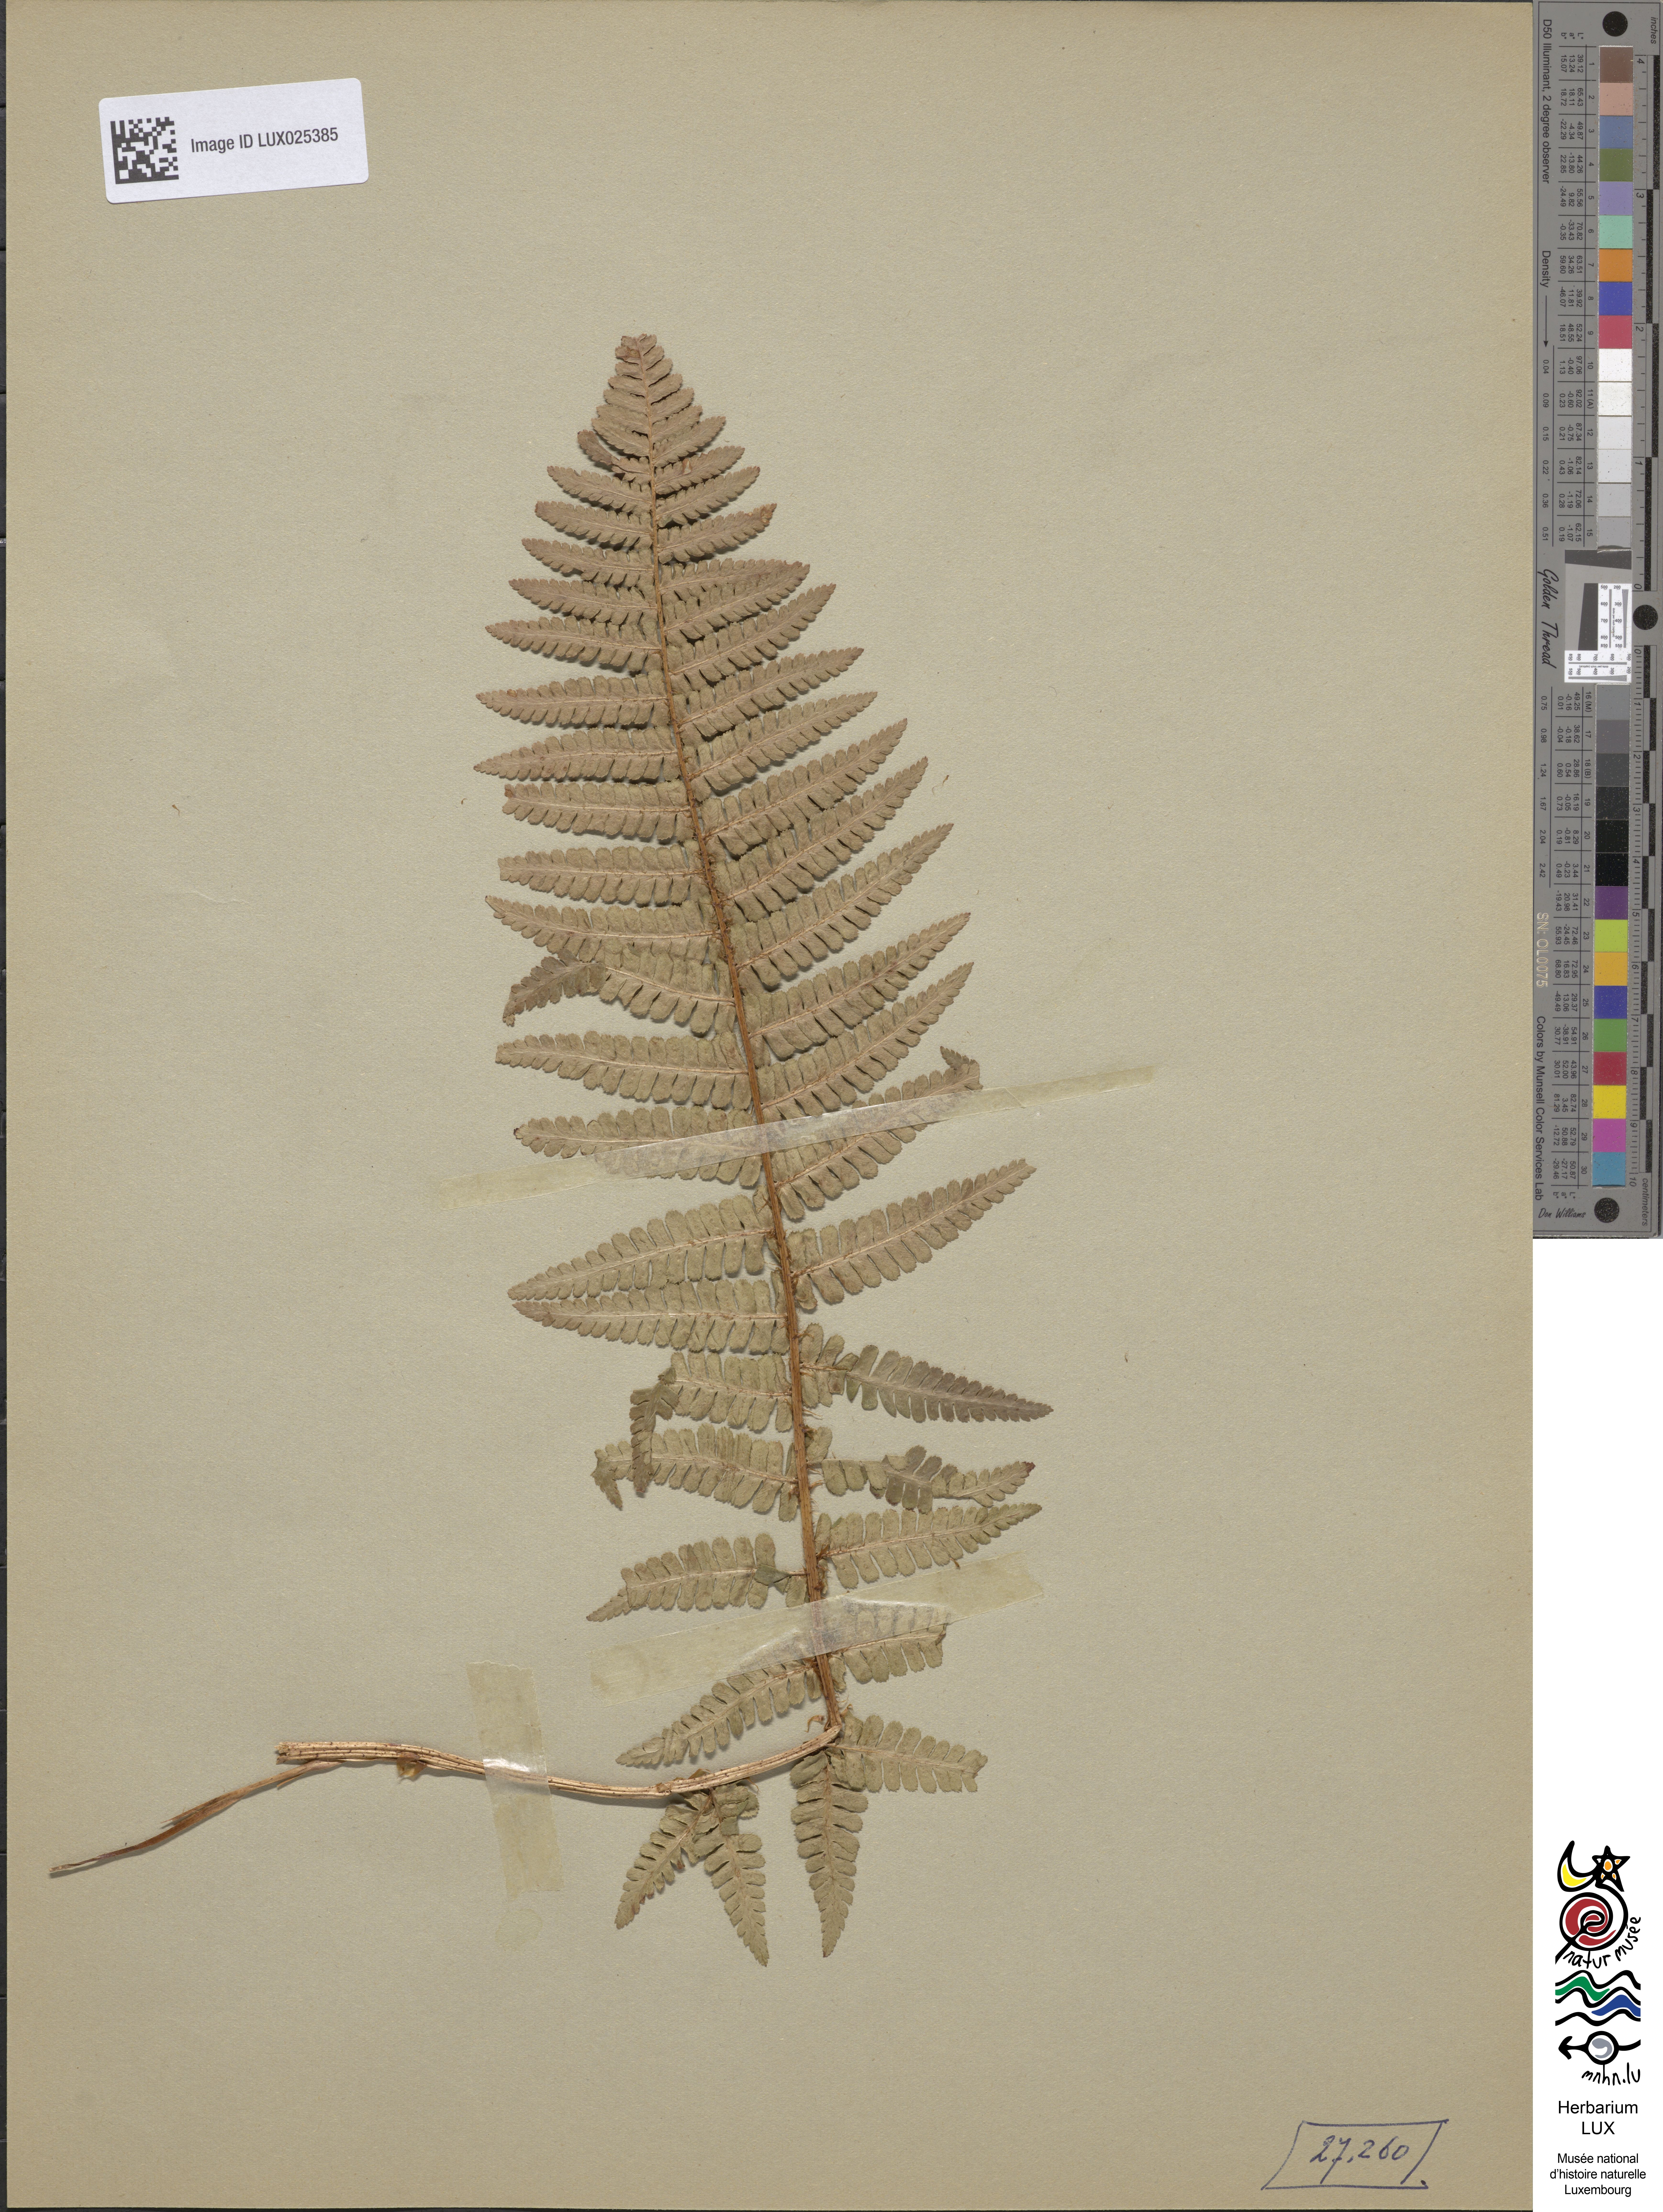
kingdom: Plantae
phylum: Tracheophyta
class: Polypodiopsida
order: Polypodiales
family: Dryopteridaceae
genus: Dryopteris
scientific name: Dryopteris cambrensis
